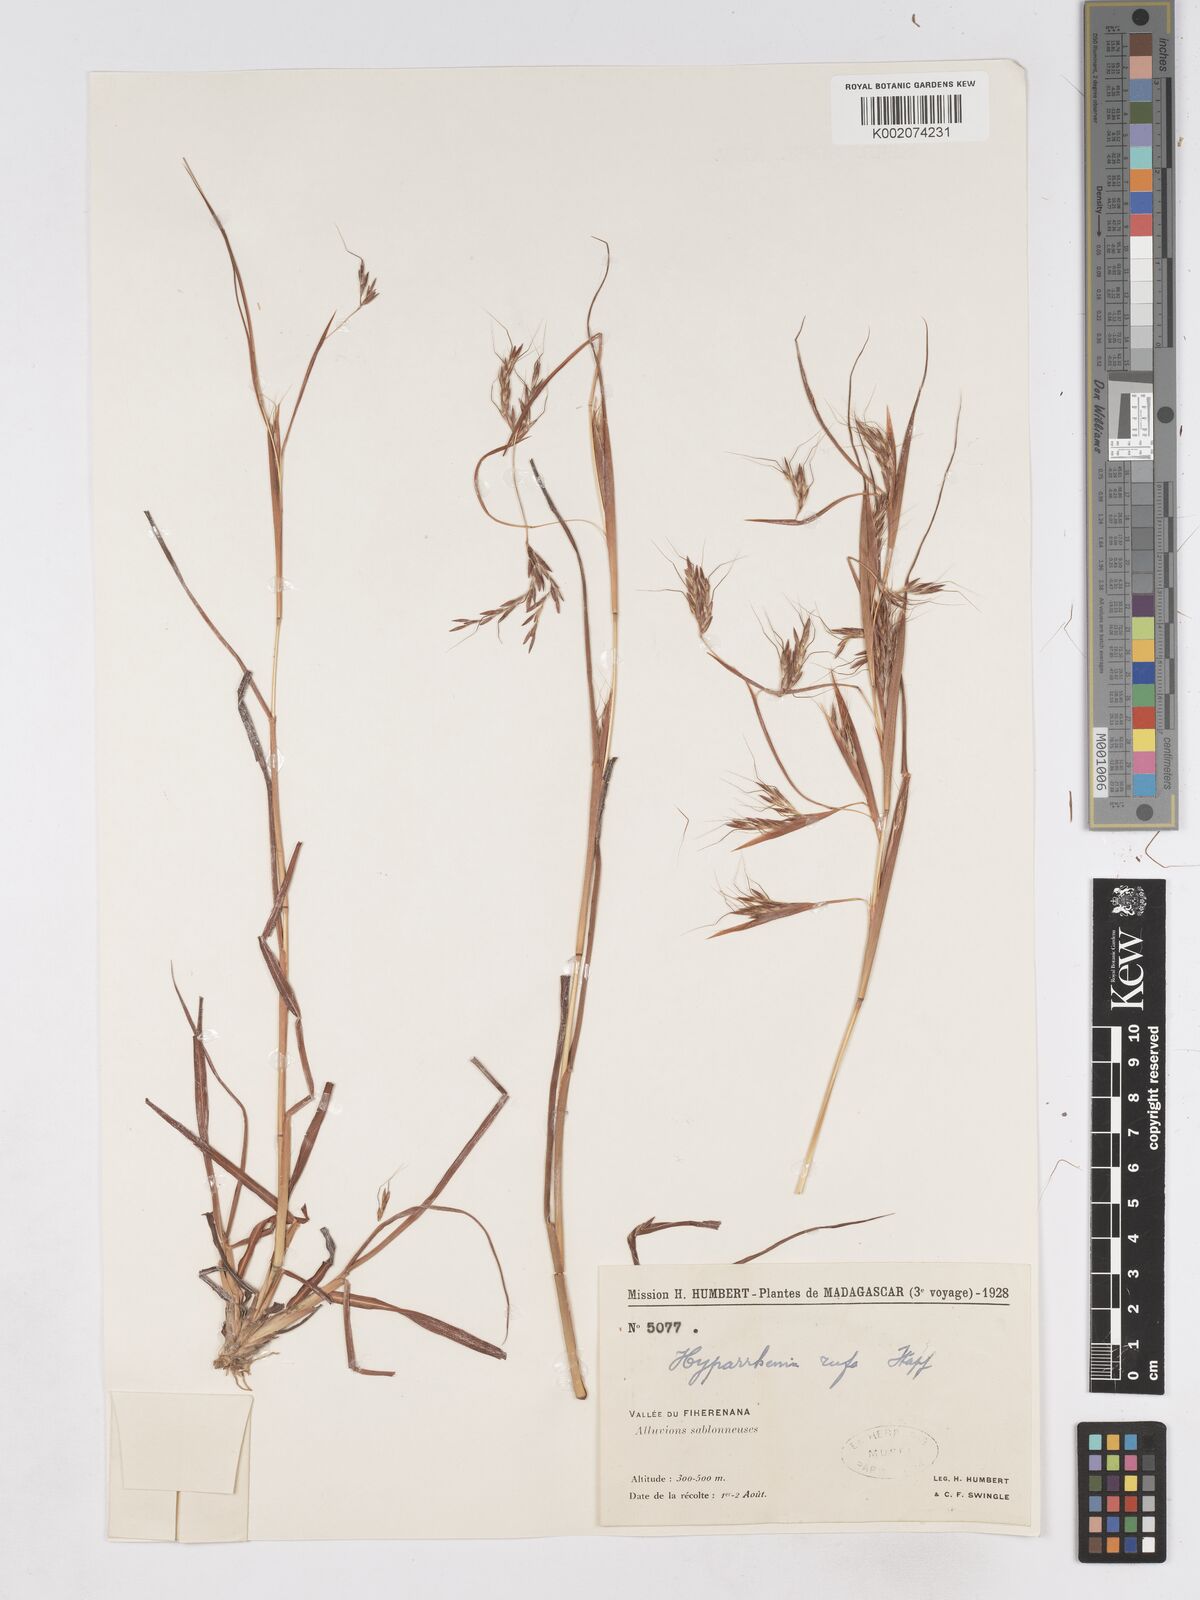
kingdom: Plantae
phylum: Tracheophyta
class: Liliopsida
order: Poales
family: Poaceae
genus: Hyparrhenia
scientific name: Hyparrhenia rufa
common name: Jaraguagrass
